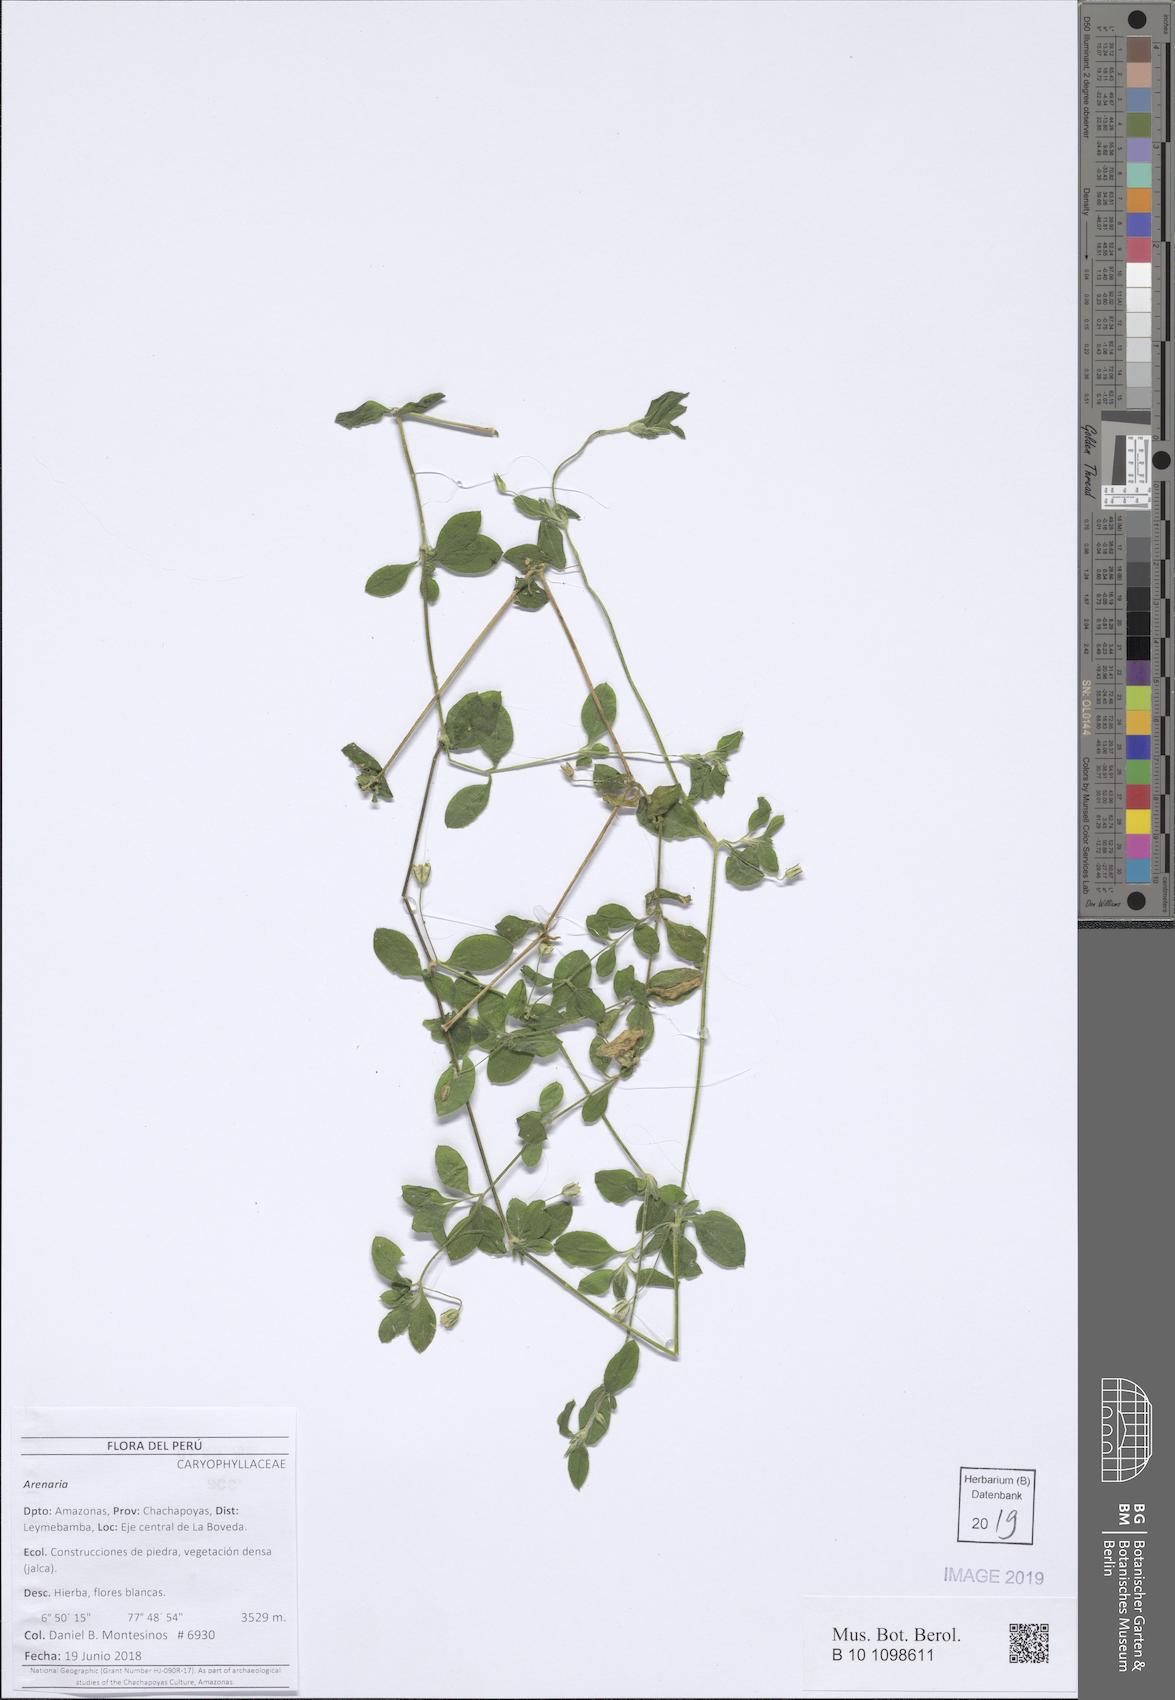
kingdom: Plantae
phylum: Tracheophyta
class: Magnoliopsida
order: Caryophyllales
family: Caryophyllaceae
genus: Arenaria
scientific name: Arenaria
